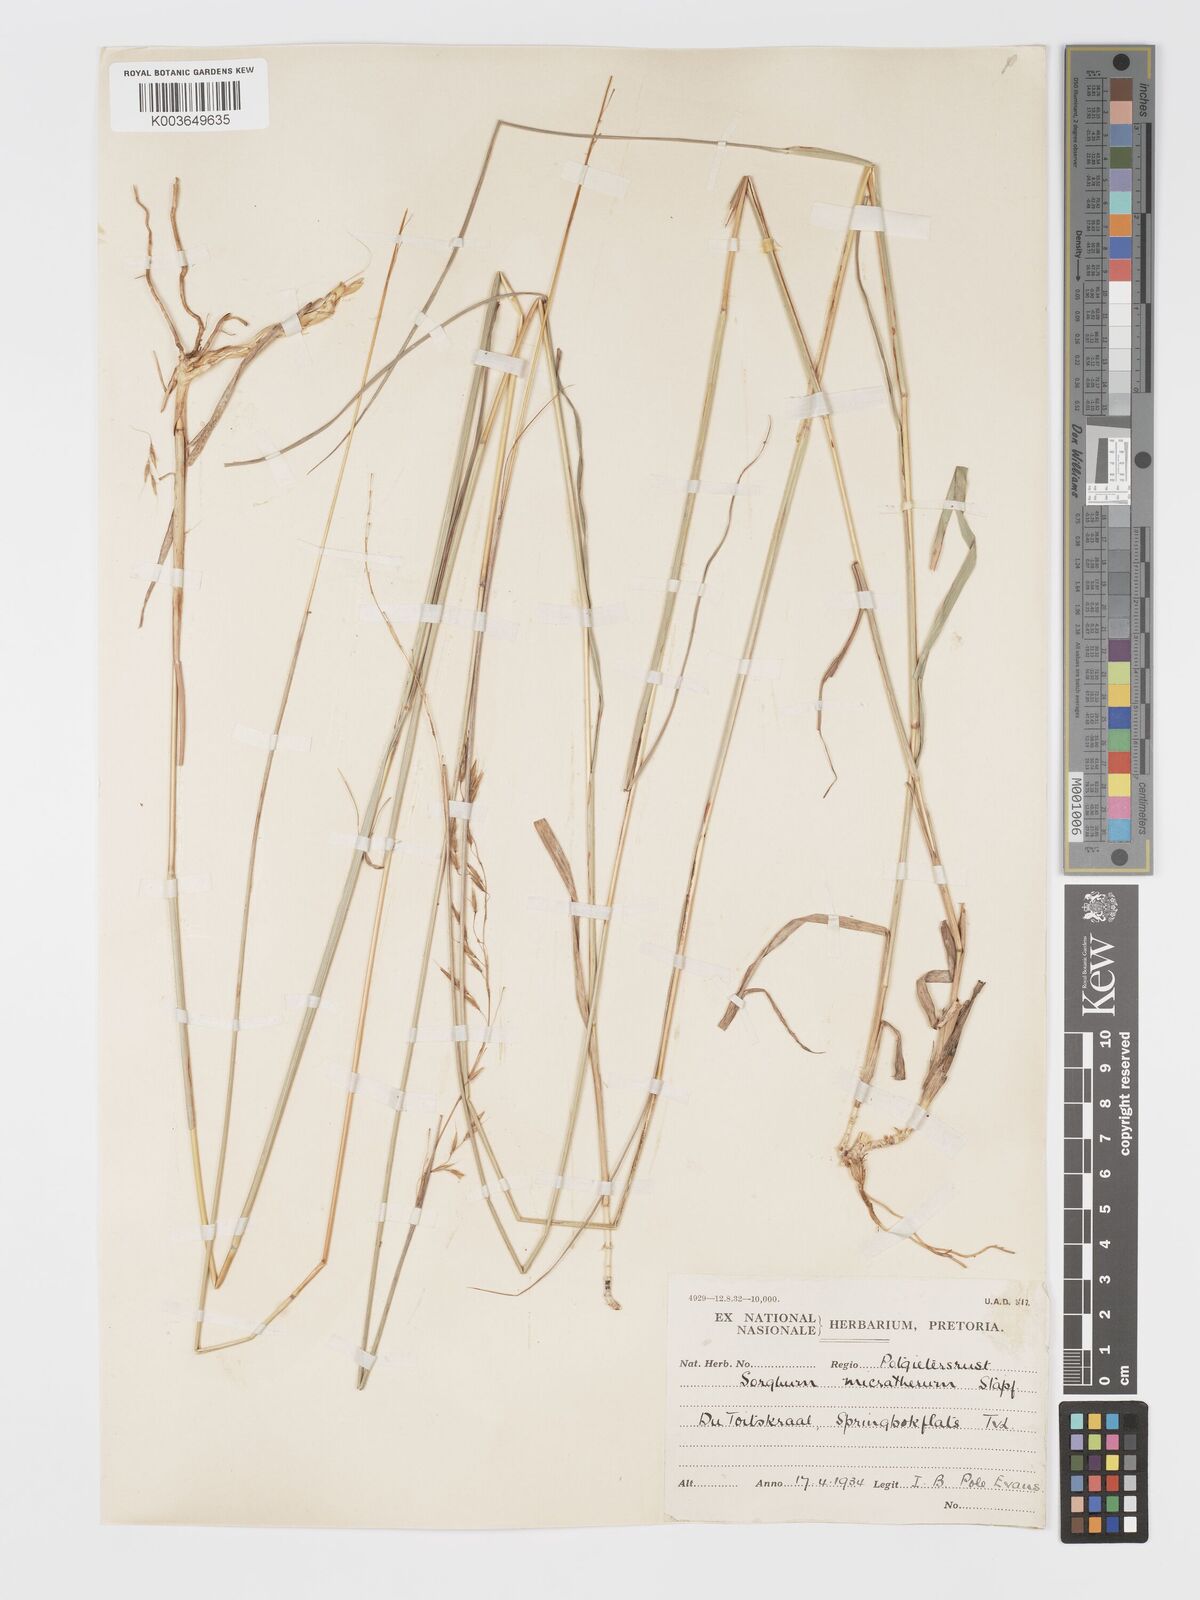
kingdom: Plantae
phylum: Tracheophyta
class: Liliopsida
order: Poales
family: Poaceae
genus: Sorghastrum
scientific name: Sorghastrum nudipes
